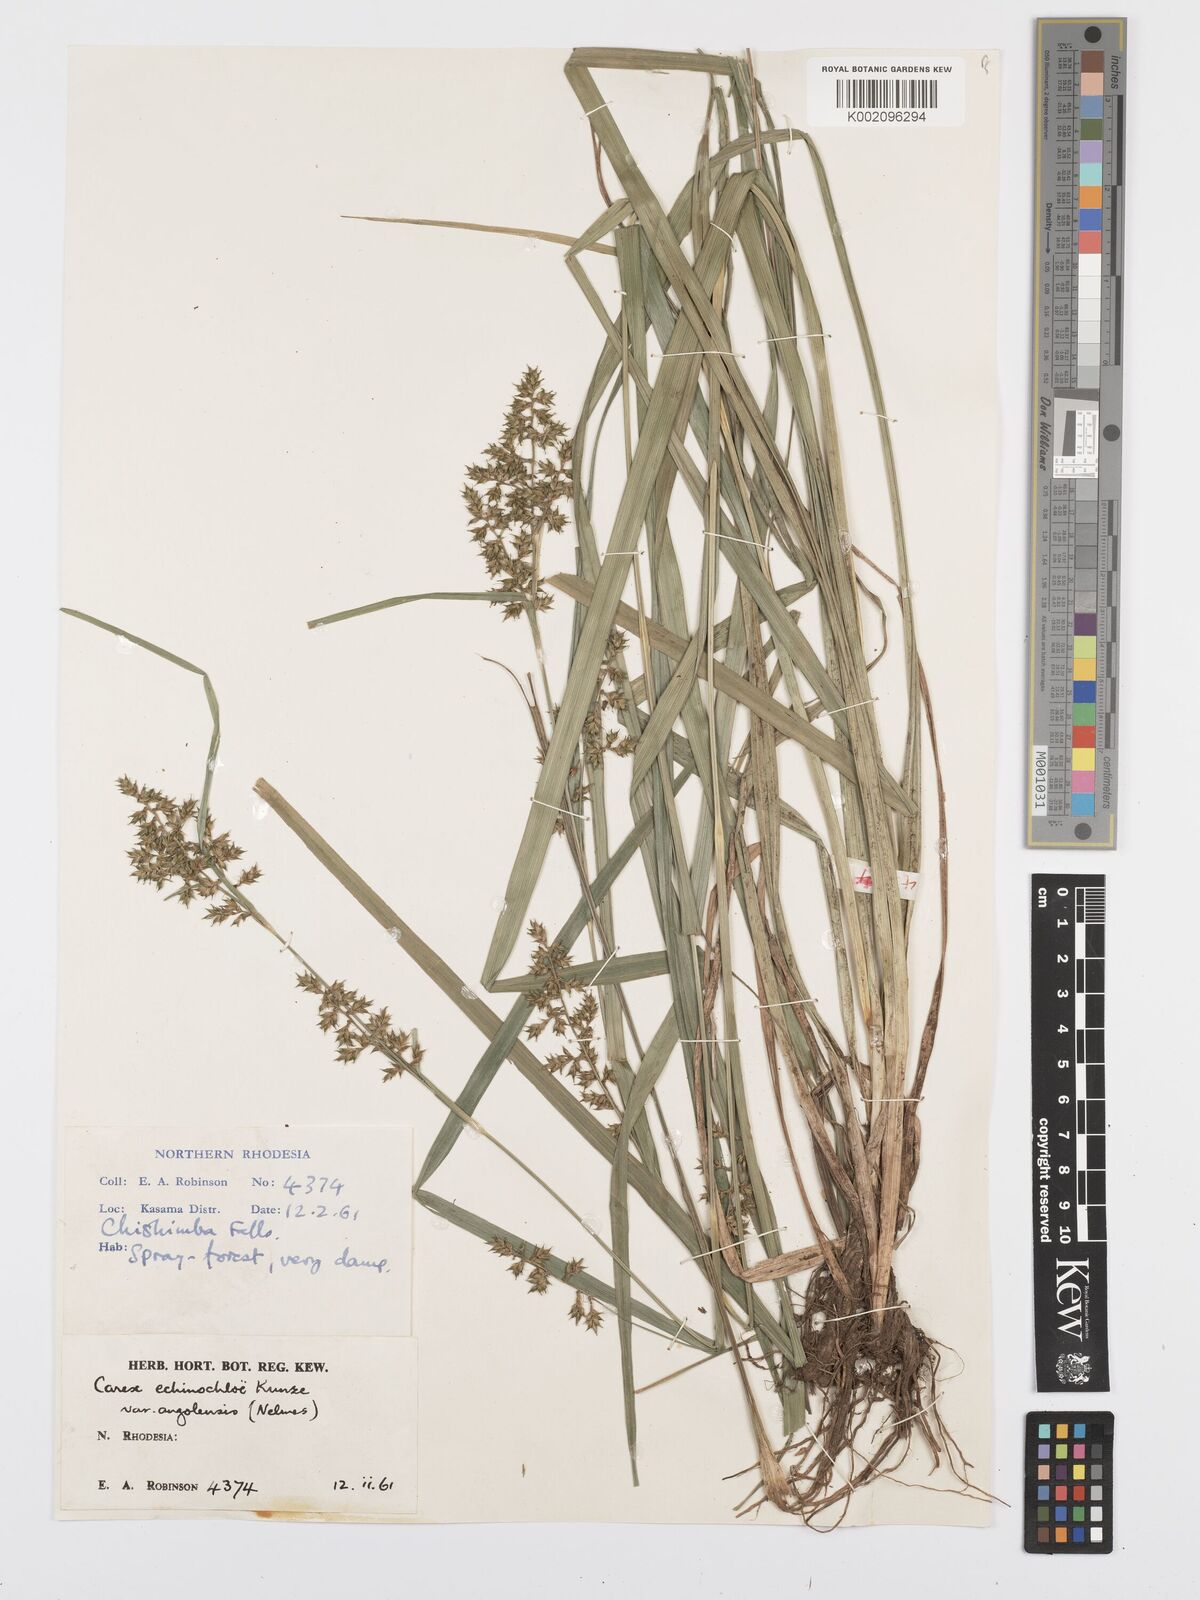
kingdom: Plantae
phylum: Tracheophyta
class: Liliopsida
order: Poales
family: Cyperaceae
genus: Carex
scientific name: Carex angolensis
